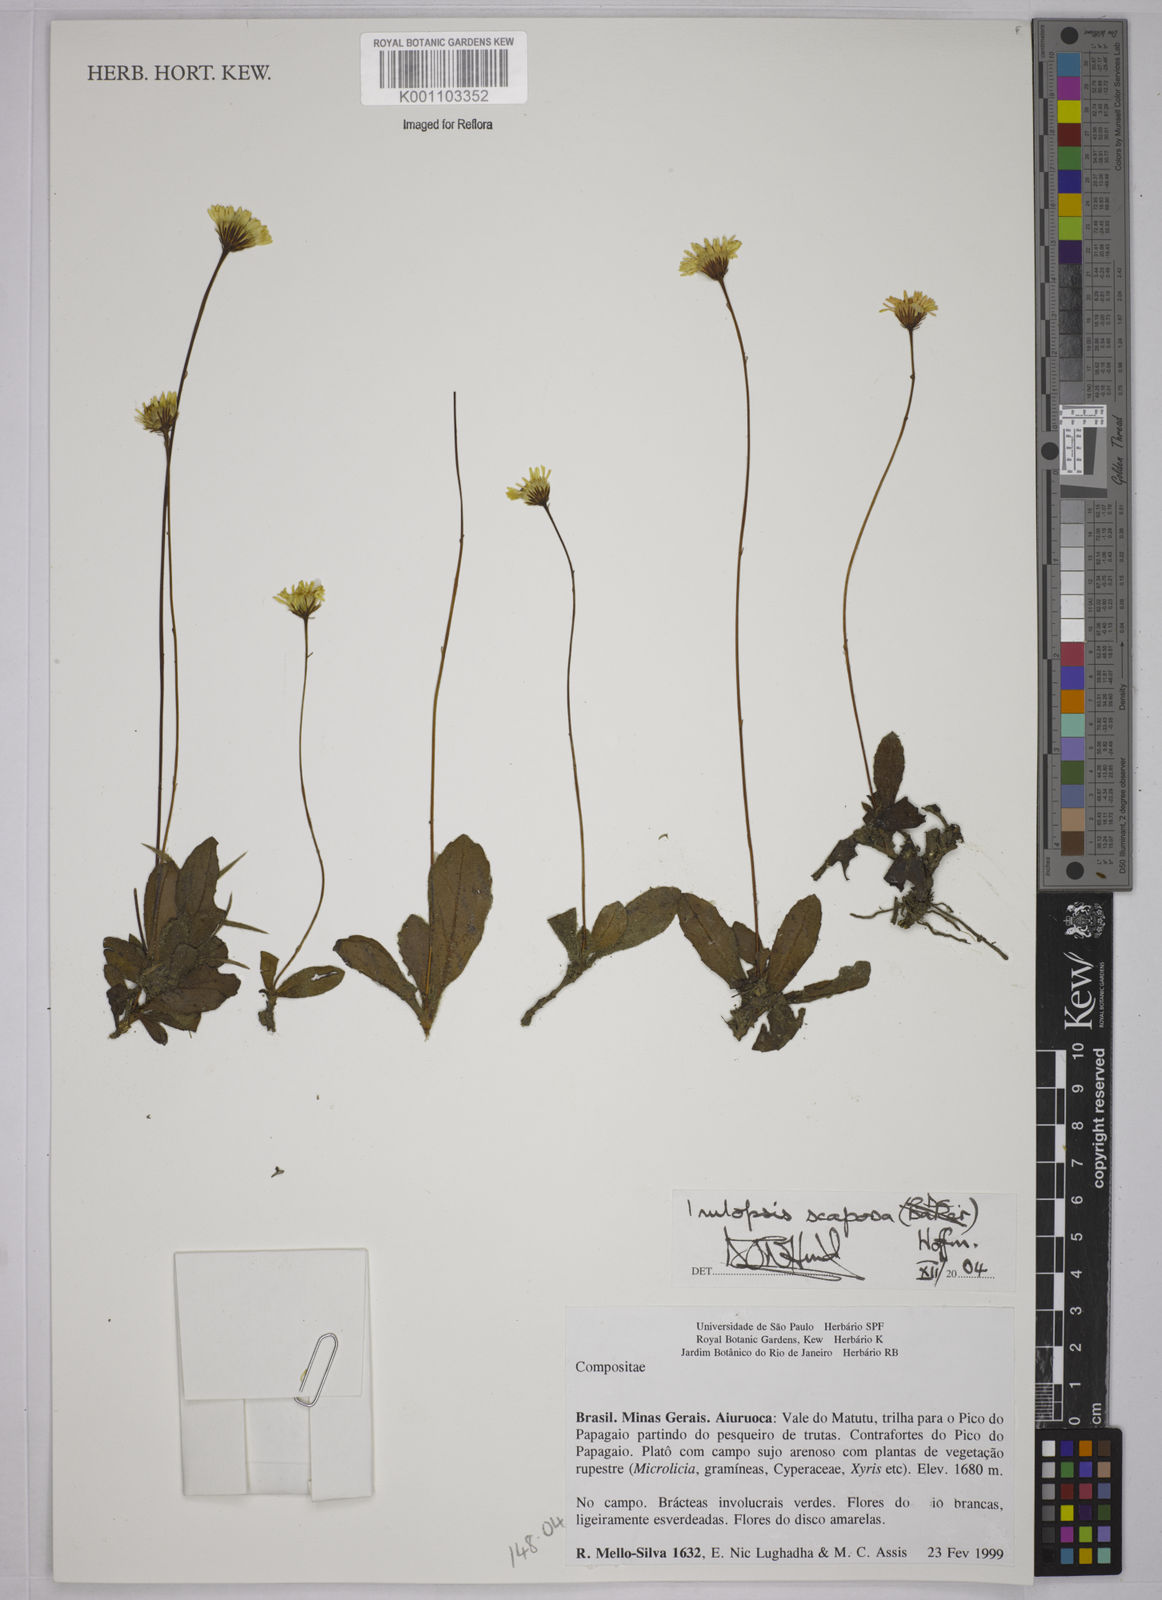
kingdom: Plantae
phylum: Tracheophyta
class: Magnoliopsida
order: Asterales
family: Asteraceae
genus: Inulopsis
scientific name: Inulopsis scaposa
